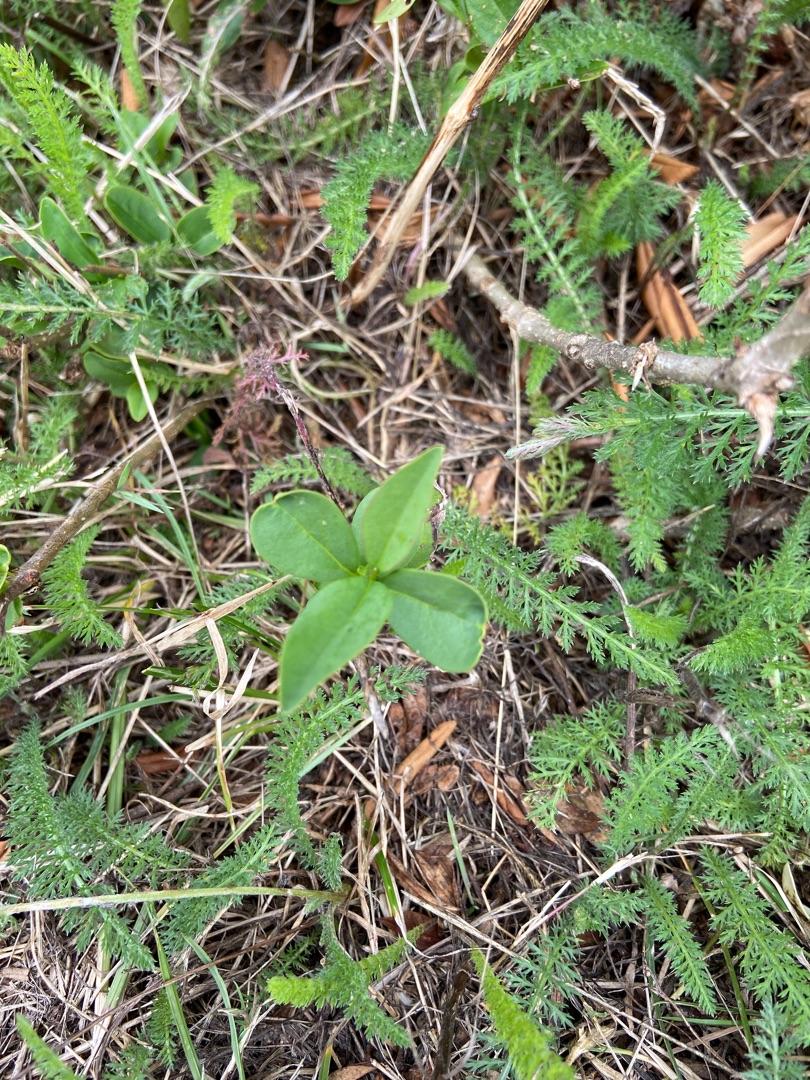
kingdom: Plantae
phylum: Tracheophyta
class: Magnoliopsida
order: Dipsacales
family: Caprifoliaceae
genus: Lonicera
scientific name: Lonicera periclymenum
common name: Almindelig gedeblad
